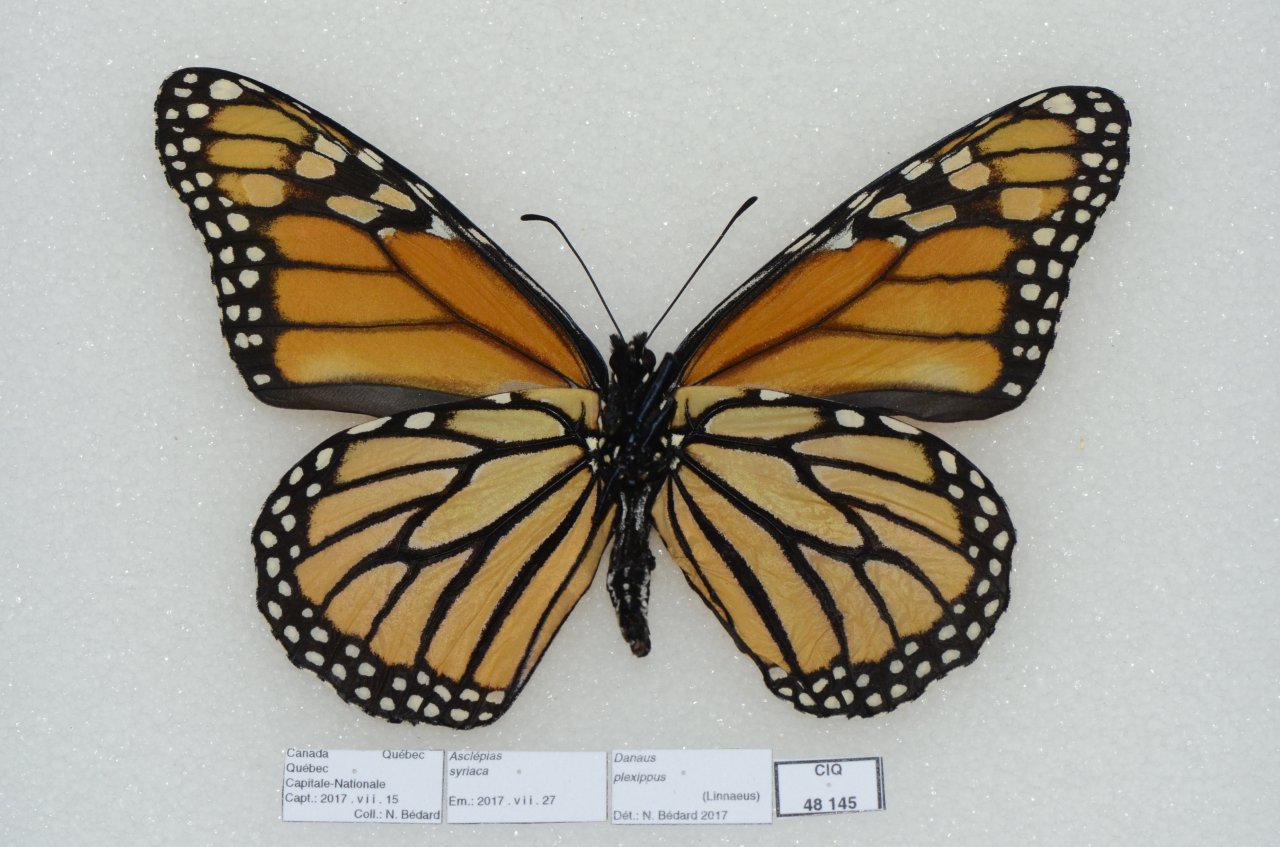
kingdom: Animalia
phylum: Arthropoda
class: Insecta
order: Lepidoptera
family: Nymphalidae
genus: Danaus
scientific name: Danaus plexippus
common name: Monarch
